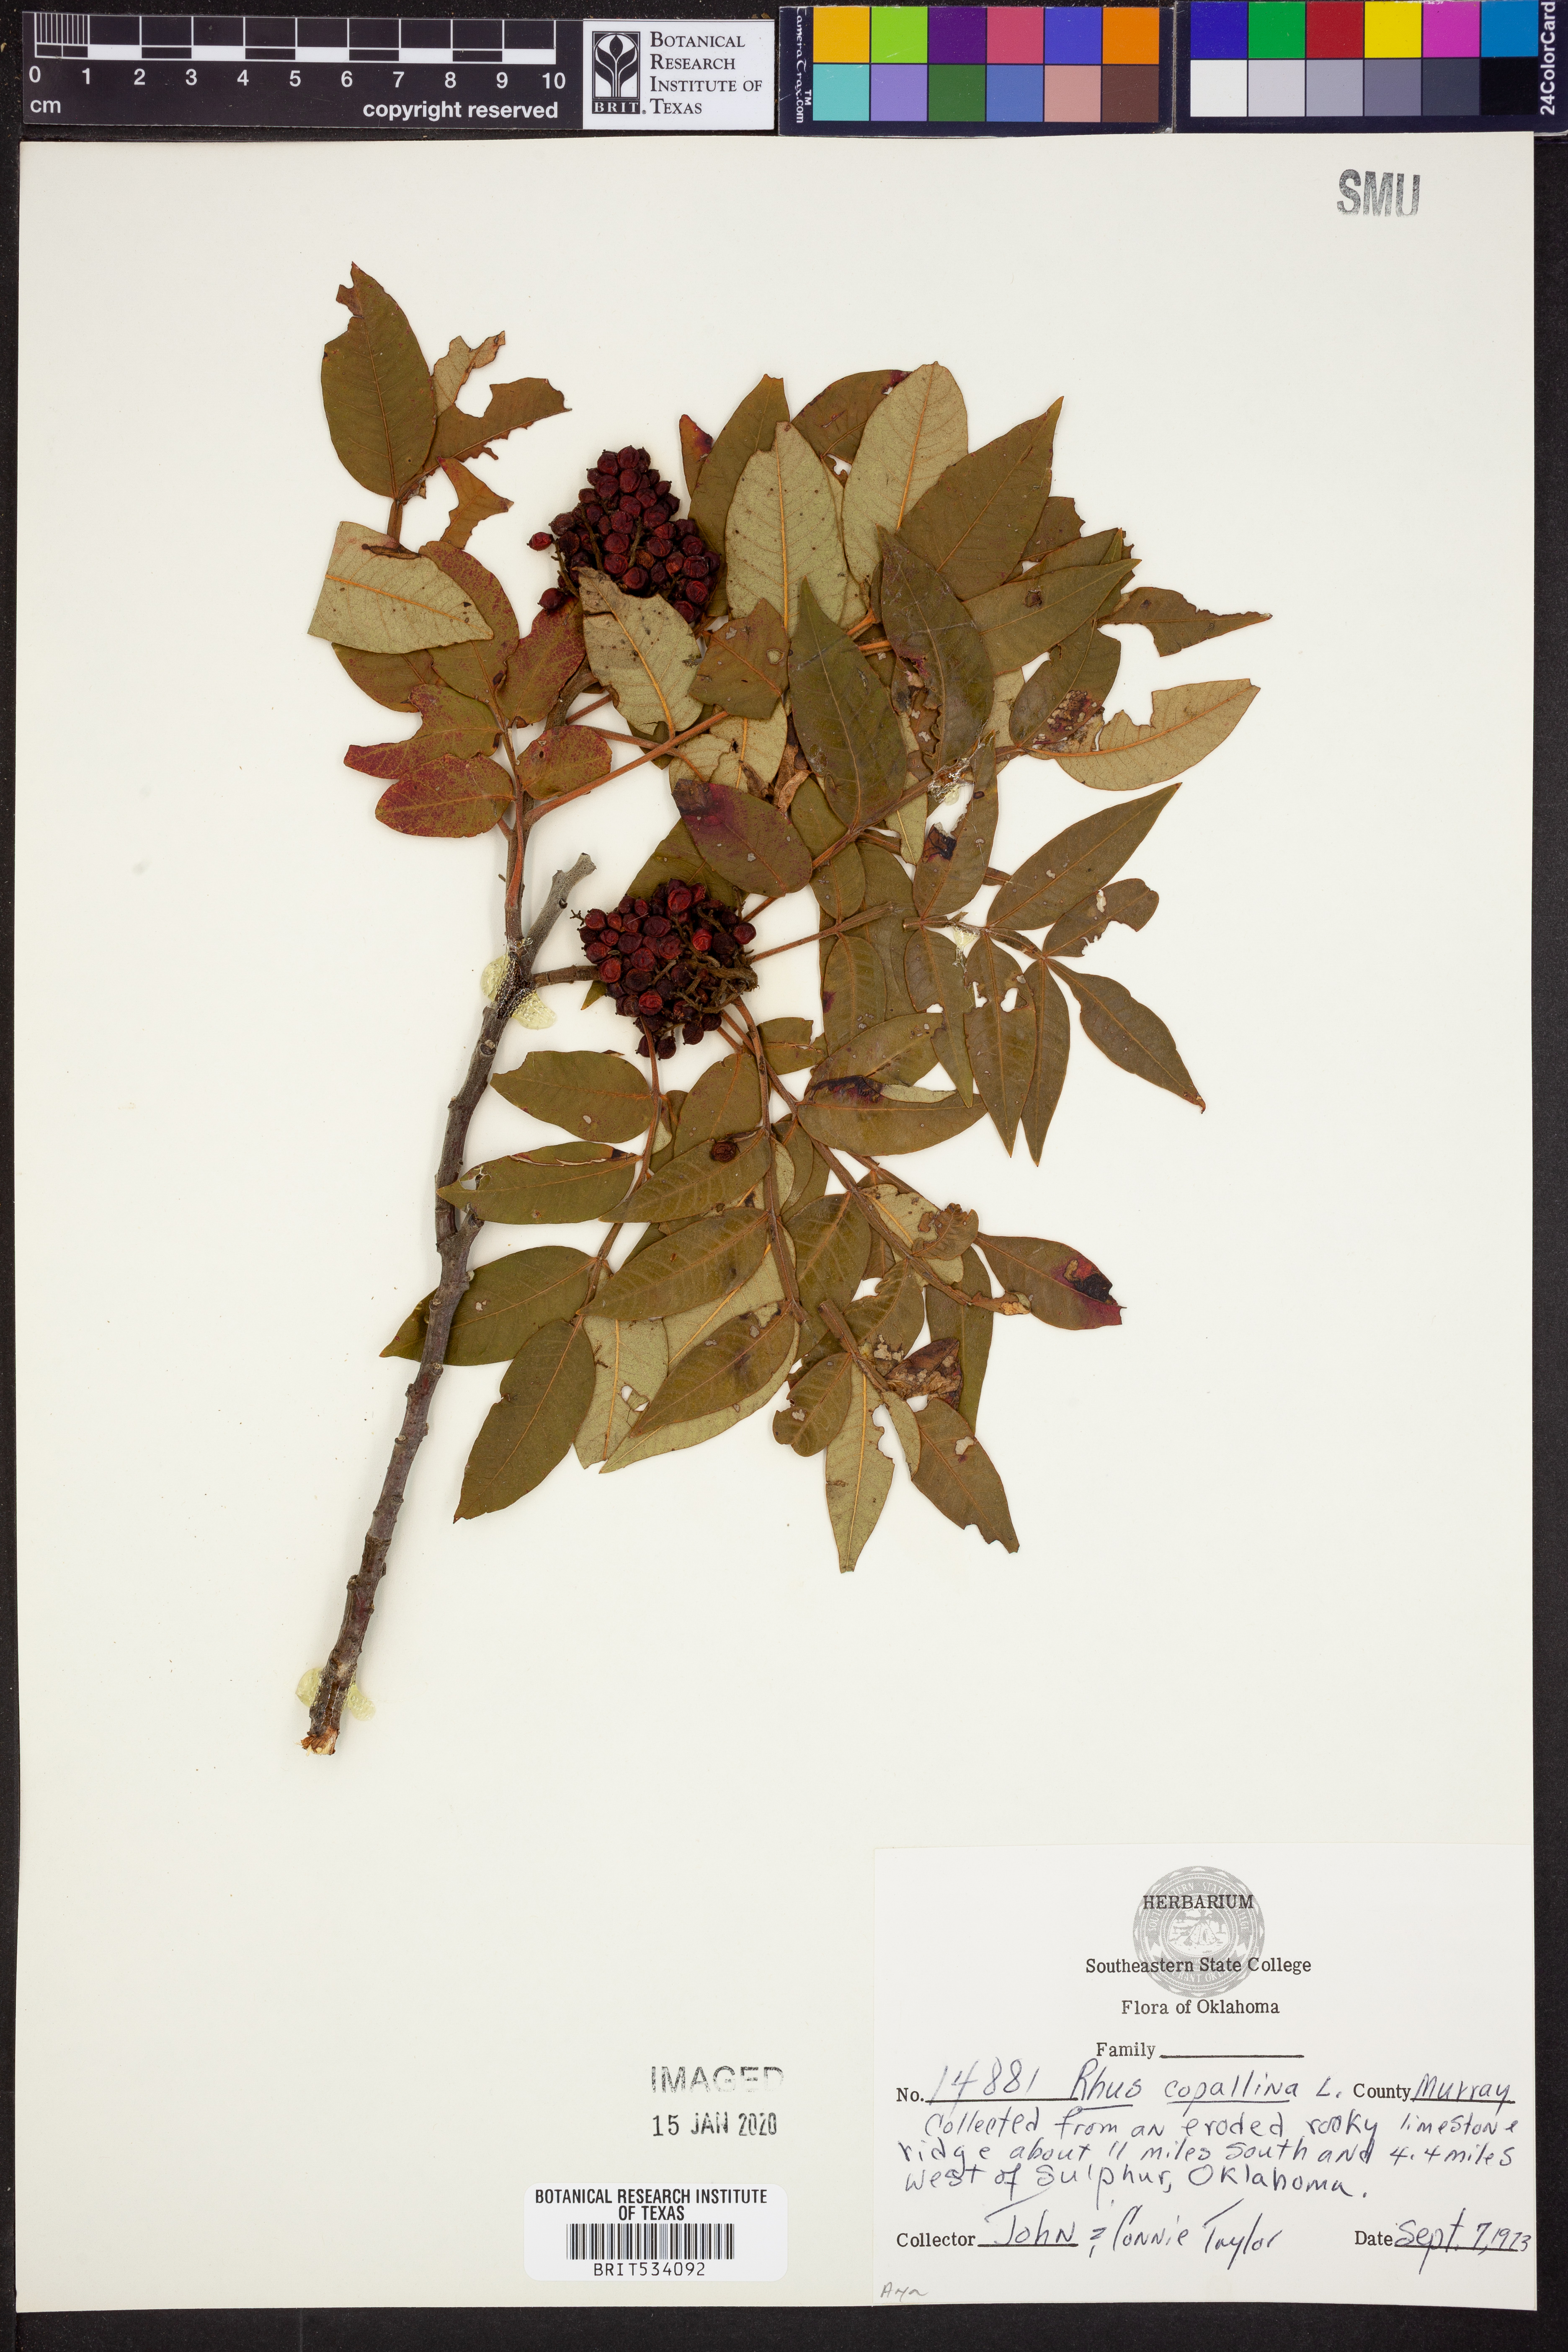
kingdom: Plantae
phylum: Tracheophyta
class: Magnoliopsida
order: Sapindales
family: Anacardiaceae
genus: Rhus
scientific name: Rhus copallina
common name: Shining sumac
